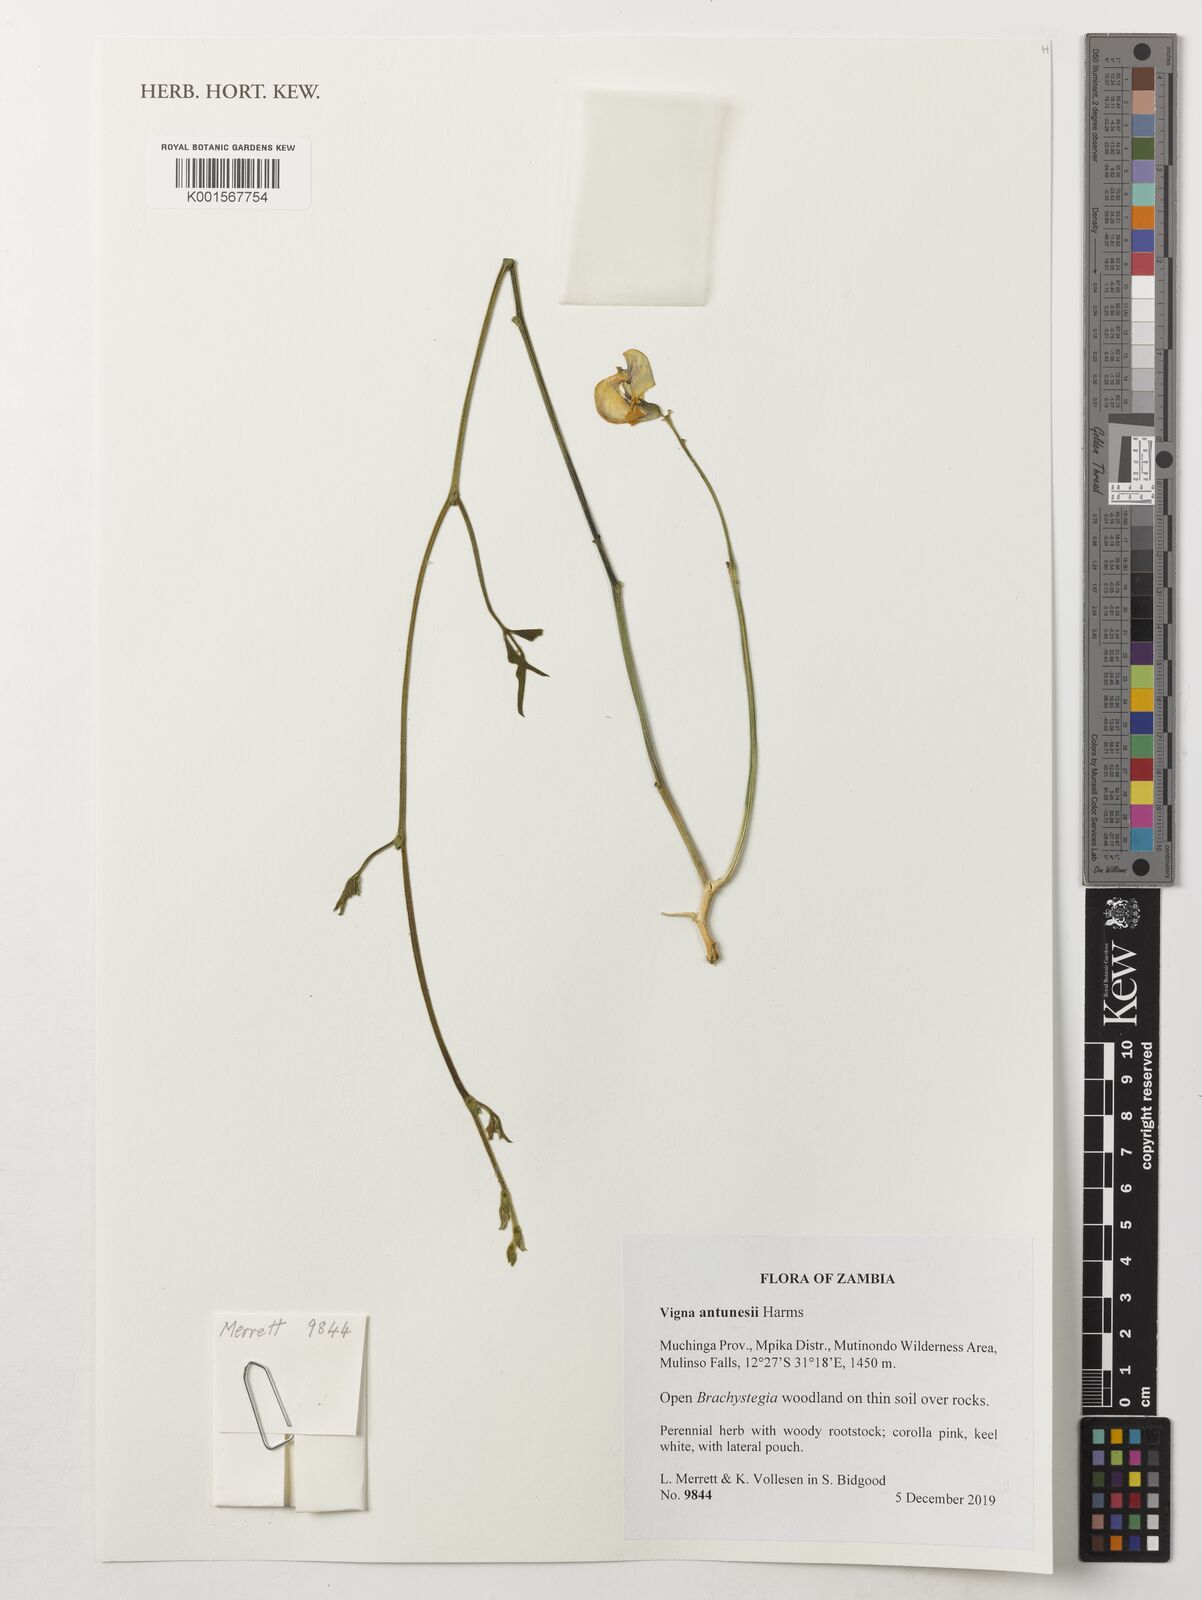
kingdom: Plantae
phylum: Tracheophyta
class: Magnoliopsida
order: Fabales
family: Fabaceae
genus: Vigna
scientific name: Vigna antunesii
